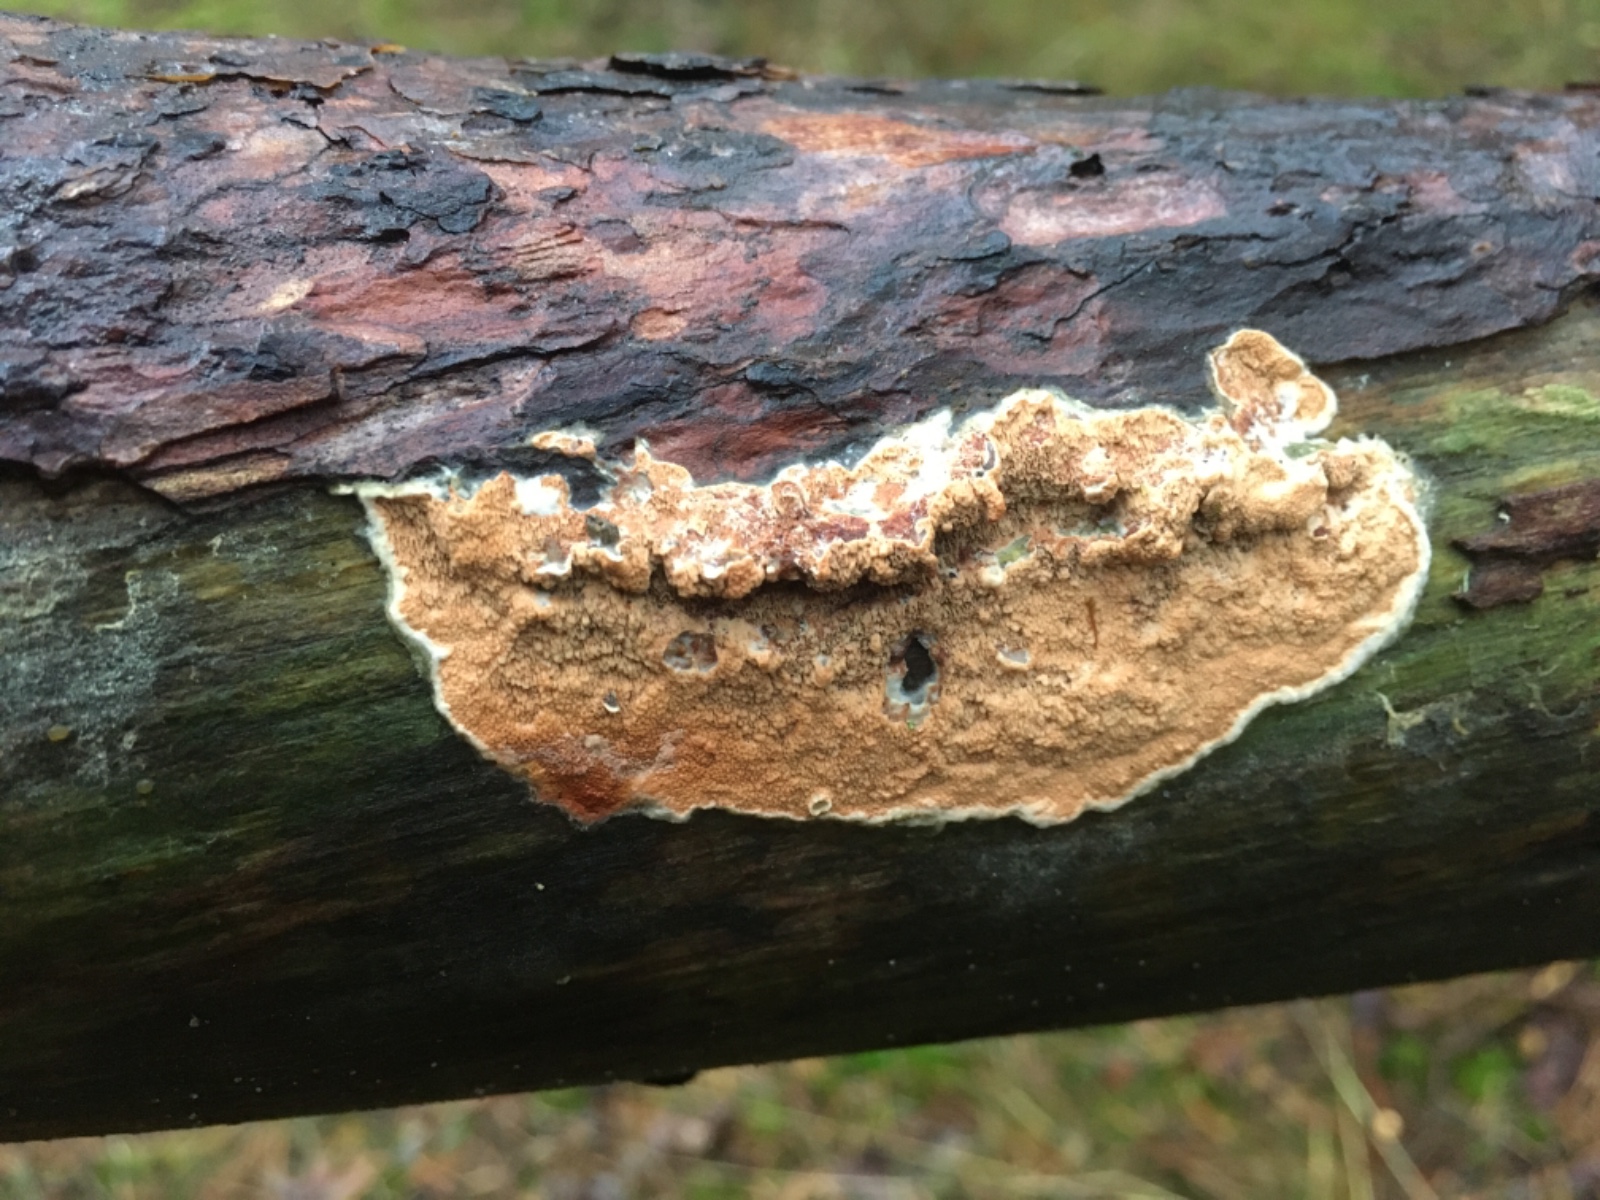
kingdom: Fungi
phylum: Basidiomycota
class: Agaricomycetes
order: Polyporales
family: Irpicaceae
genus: Meruliopsis
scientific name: Meruliopsis taxicola
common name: purpurbrun foldporesvamp
